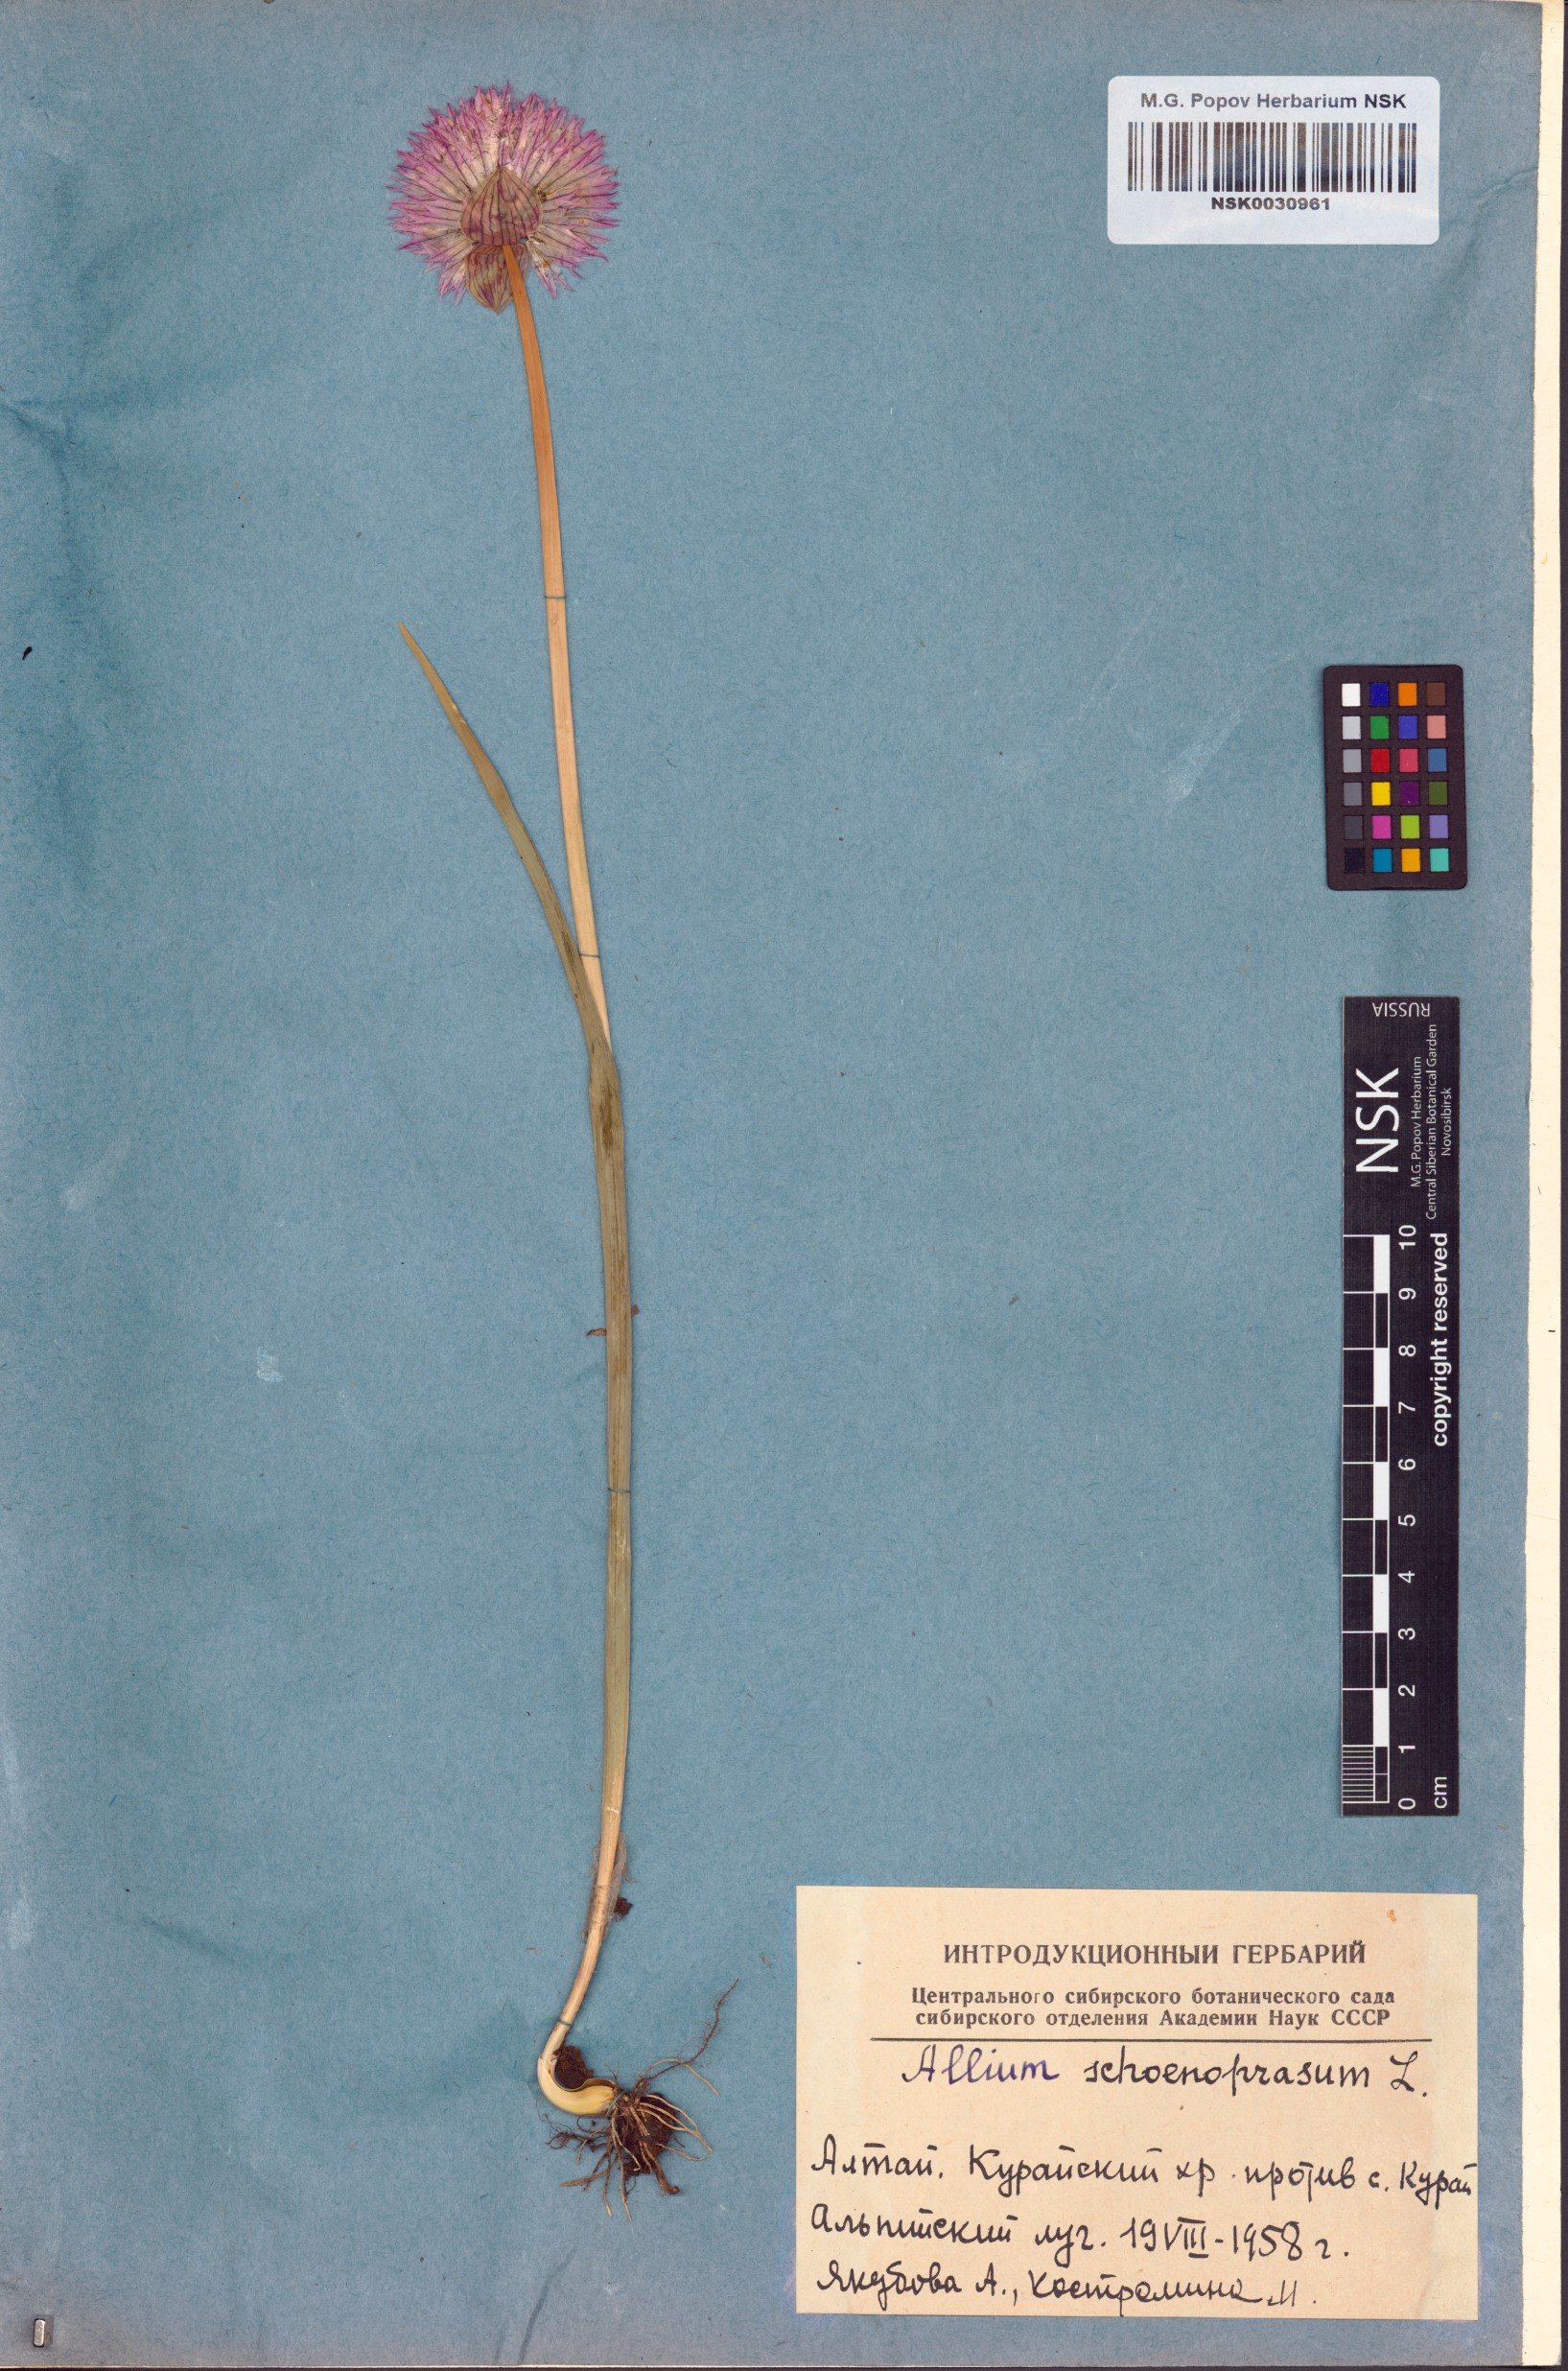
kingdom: Plantae
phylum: Tracheophyta
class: Liliopsida
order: Asparagales
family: Amaryllidaceae
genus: Allium
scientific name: Allium schoenoprasum
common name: Chives
